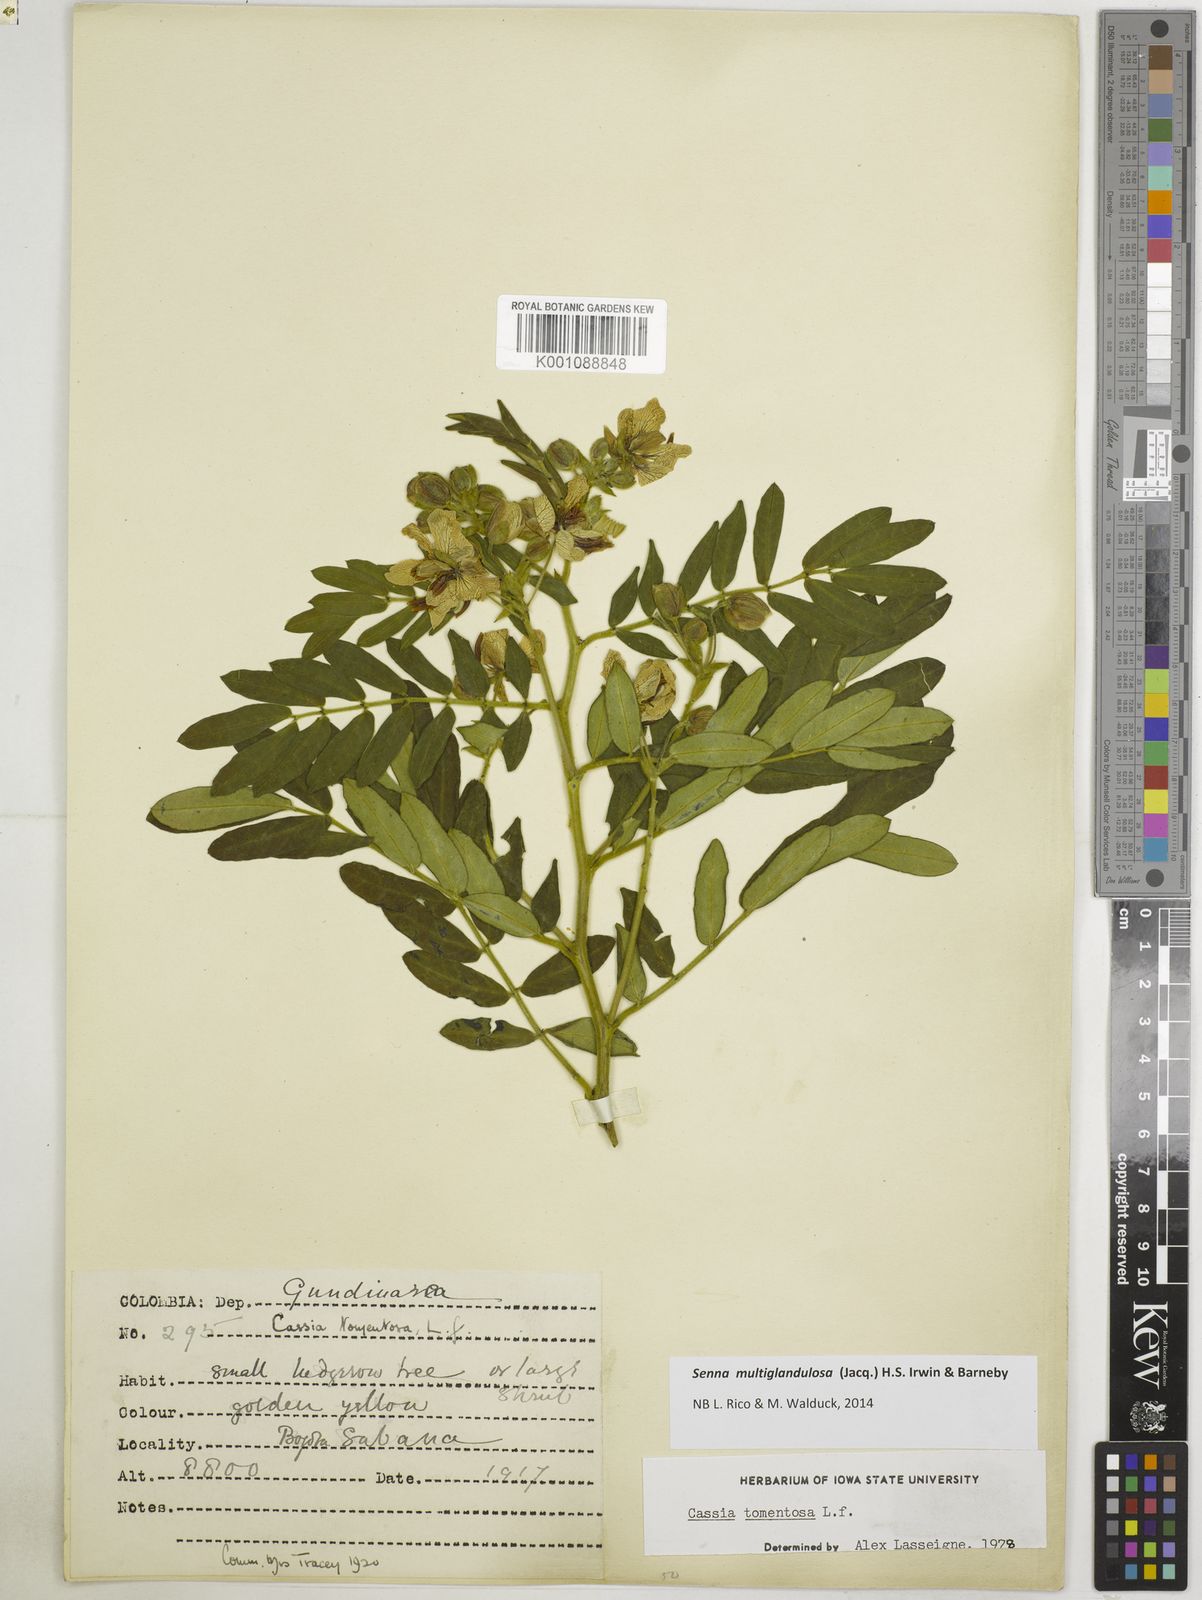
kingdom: Plantae
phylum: Tracheophyta
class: Magnoliopsida
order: Fabales
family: Fabaceae
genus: Senna
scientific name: Senna multiglandulosa
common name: Glandular senna
